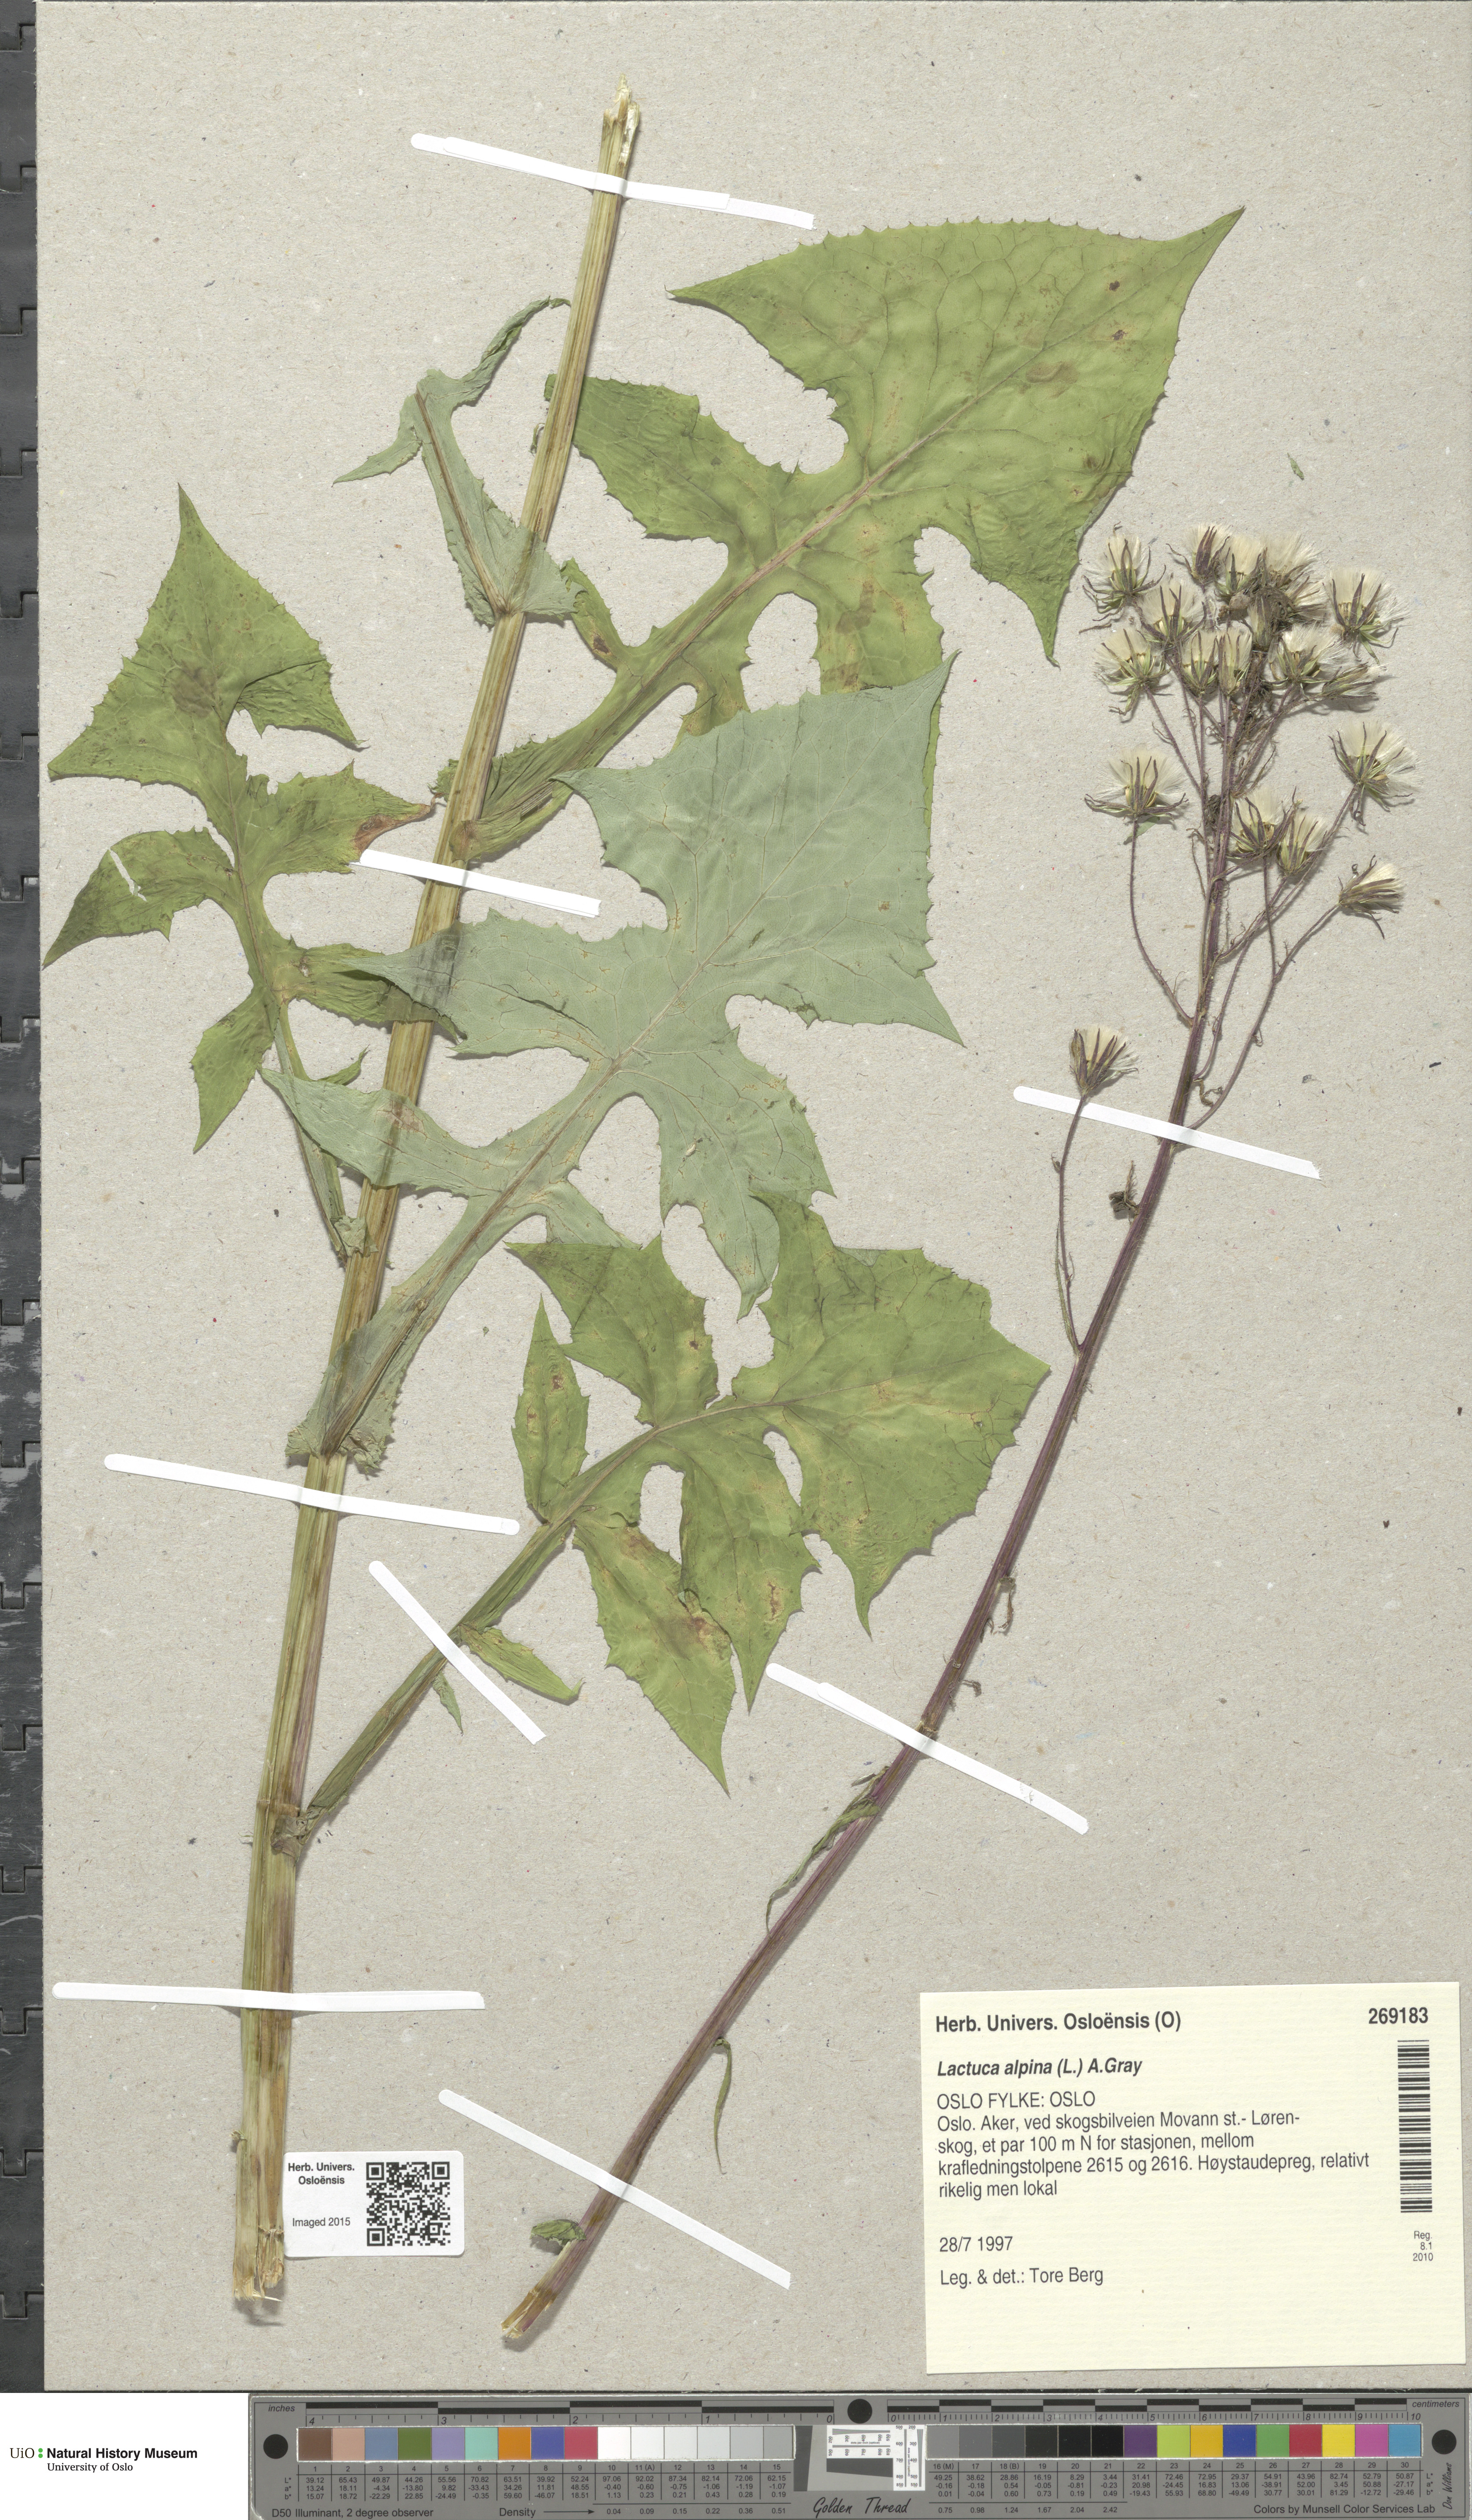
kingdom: Plantae
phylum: Tracheophyta
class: Magnoliopsida
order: Asterales
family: Asteraceae
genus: Cicerbita
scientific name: Cicerbita alpina
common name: Alpine blue-sow-thistle
